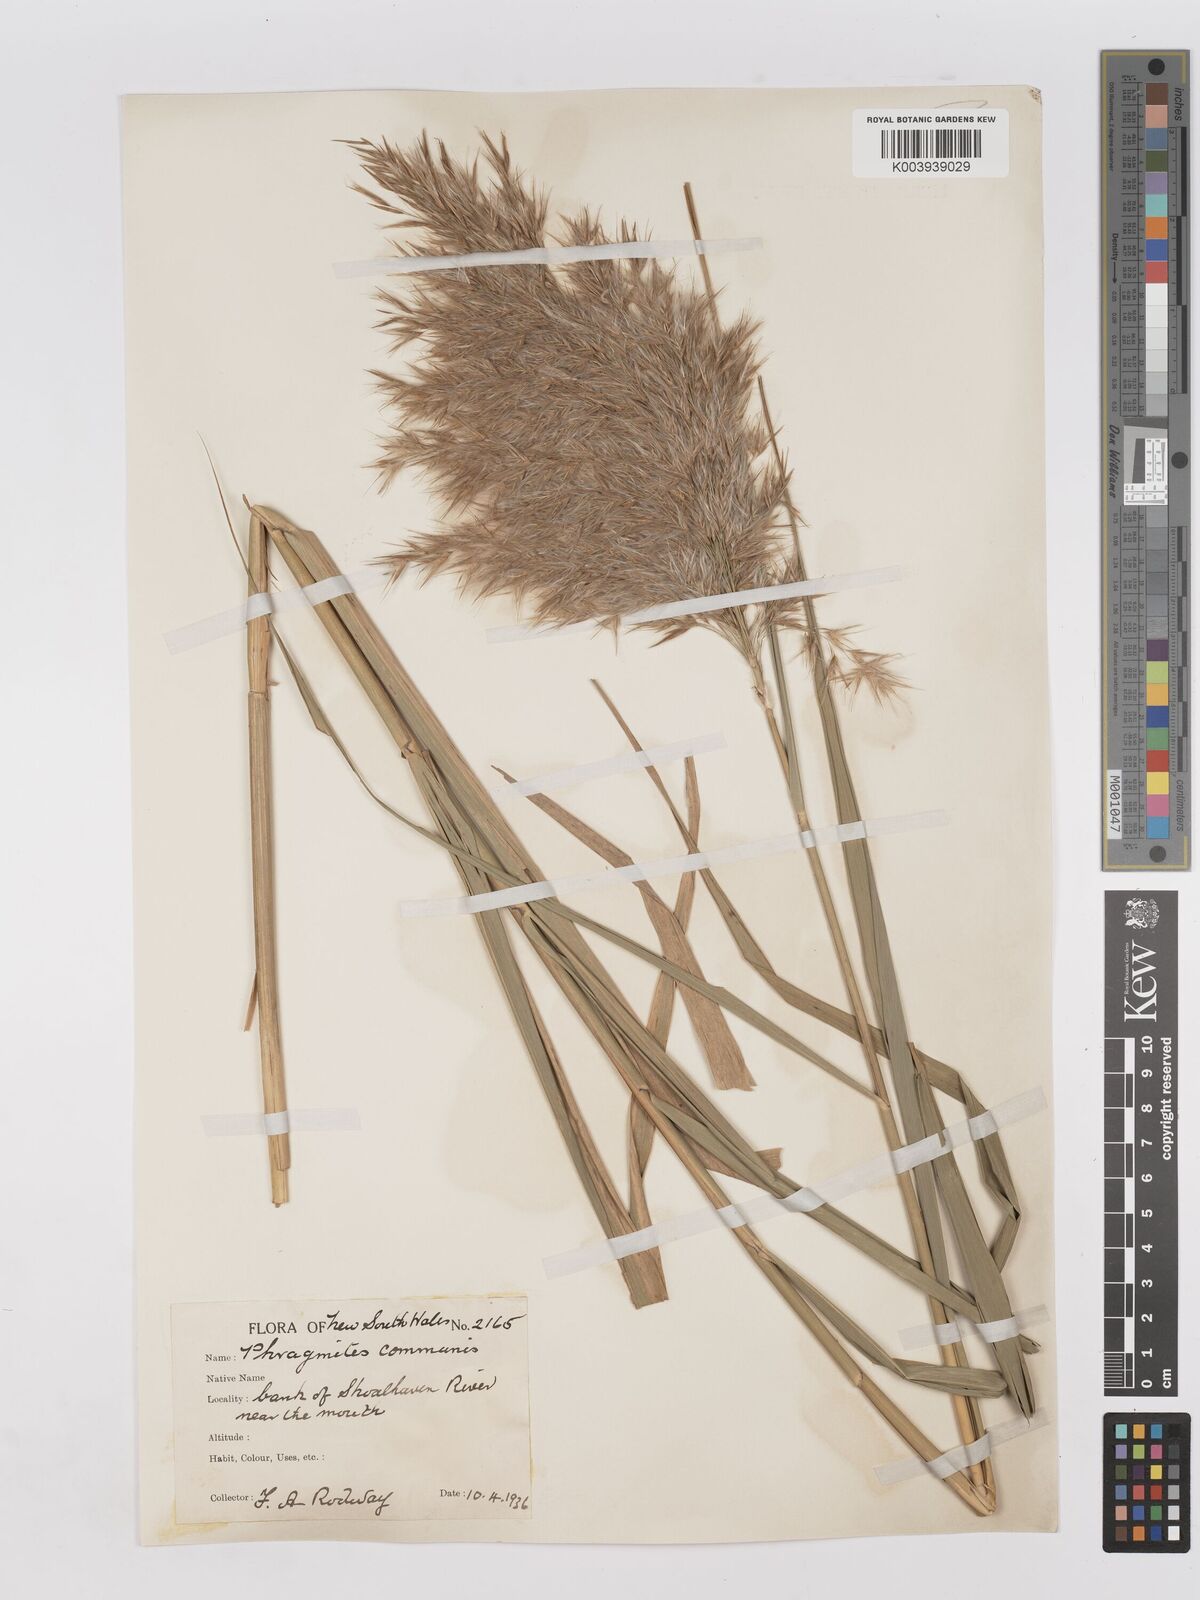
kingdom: Plantae
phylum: Tracheophyta
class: Liliopsida
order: Poales
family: Poaceae
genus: Phragmites
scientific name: Phragmites australis
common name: Common reed
